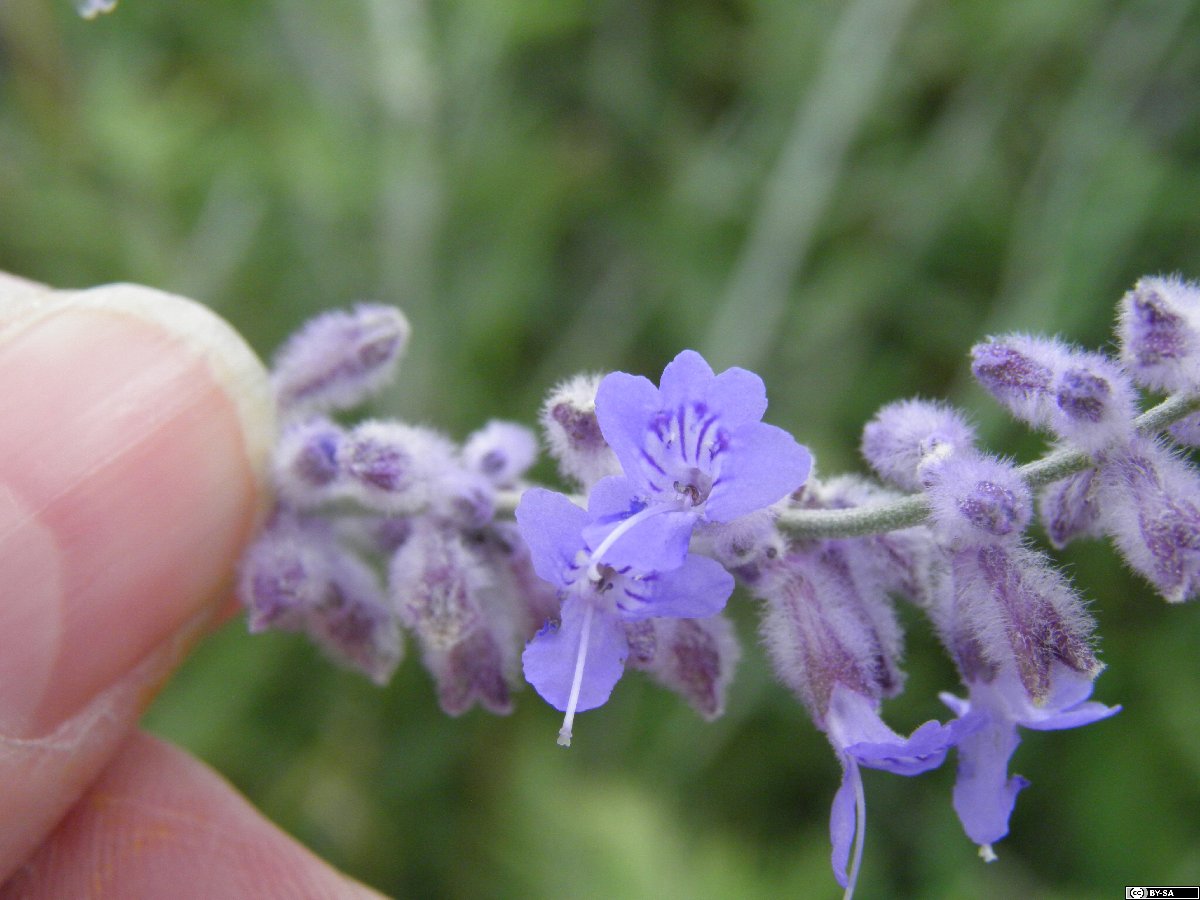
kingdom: Plantae
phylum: Tracheophyta
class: Magnoliopsida
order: Lamiales
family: Lamiaceae
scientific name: Lamiaceae
